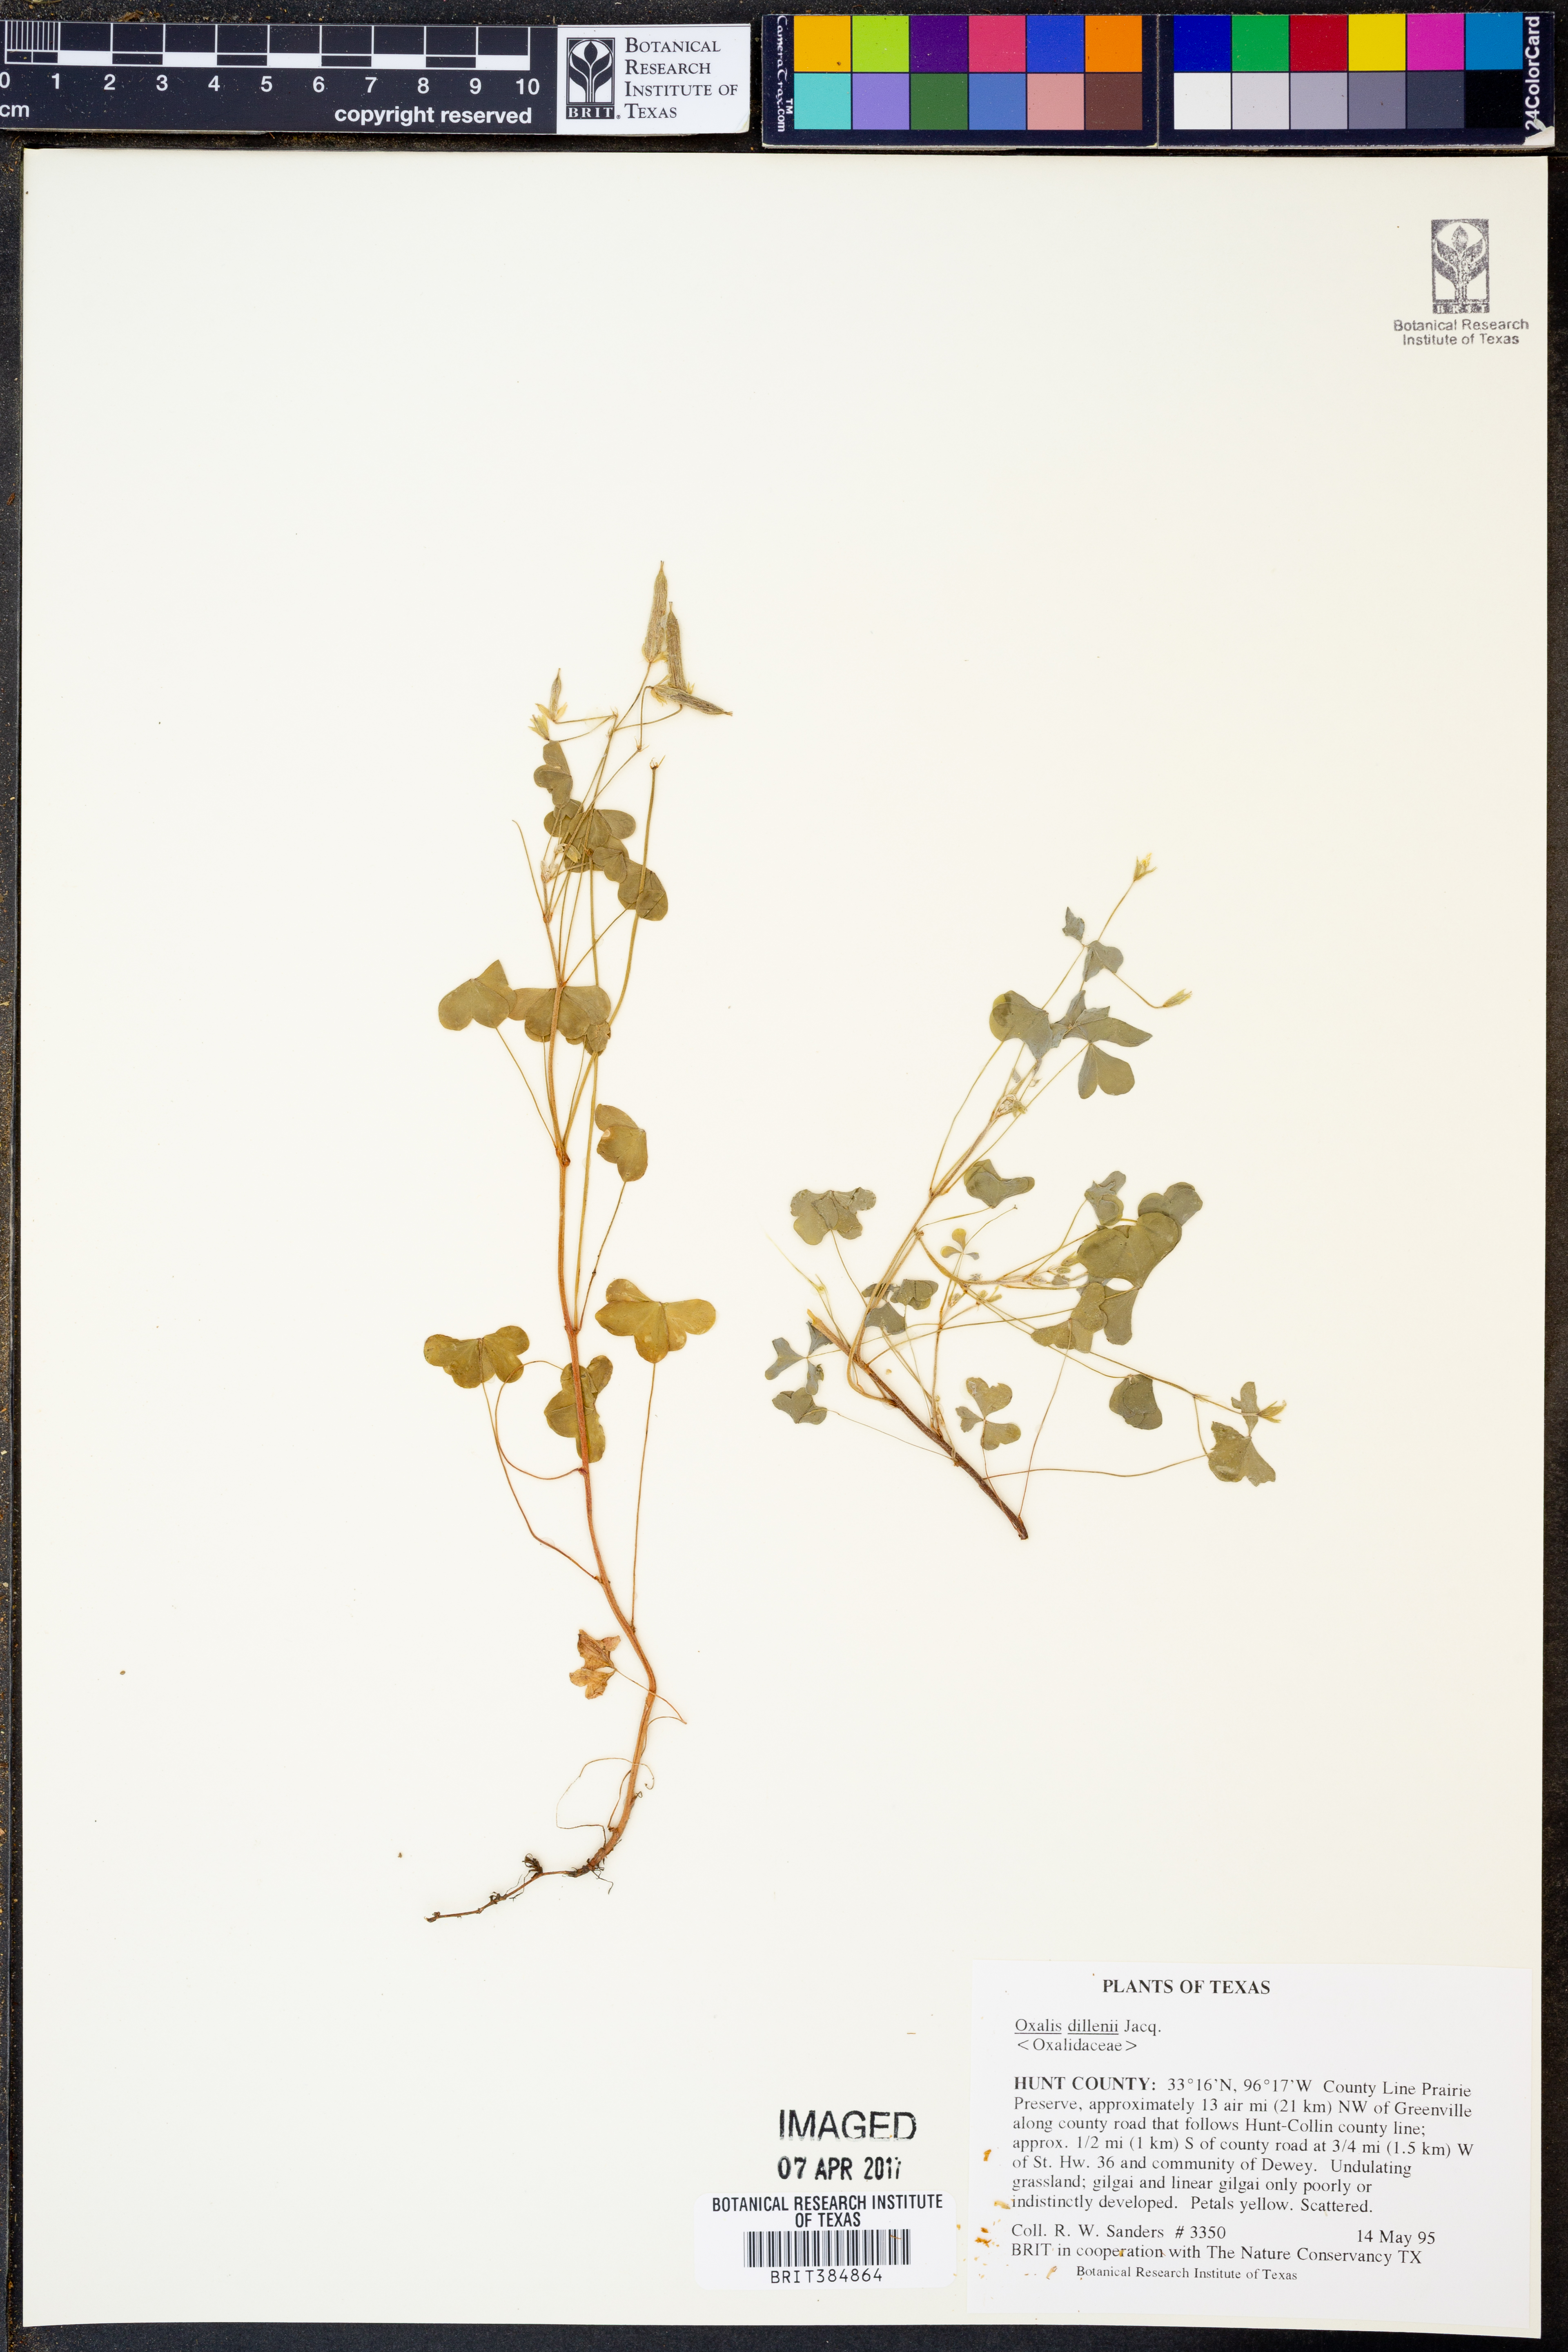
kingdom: Plantae
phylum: Tracheophyta
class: Magnoliopsida
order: Oxalidales
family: Oxalidaceae
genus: Oxalis
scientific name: Oxalis dillenii
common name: Sussex yellow-sorrel
